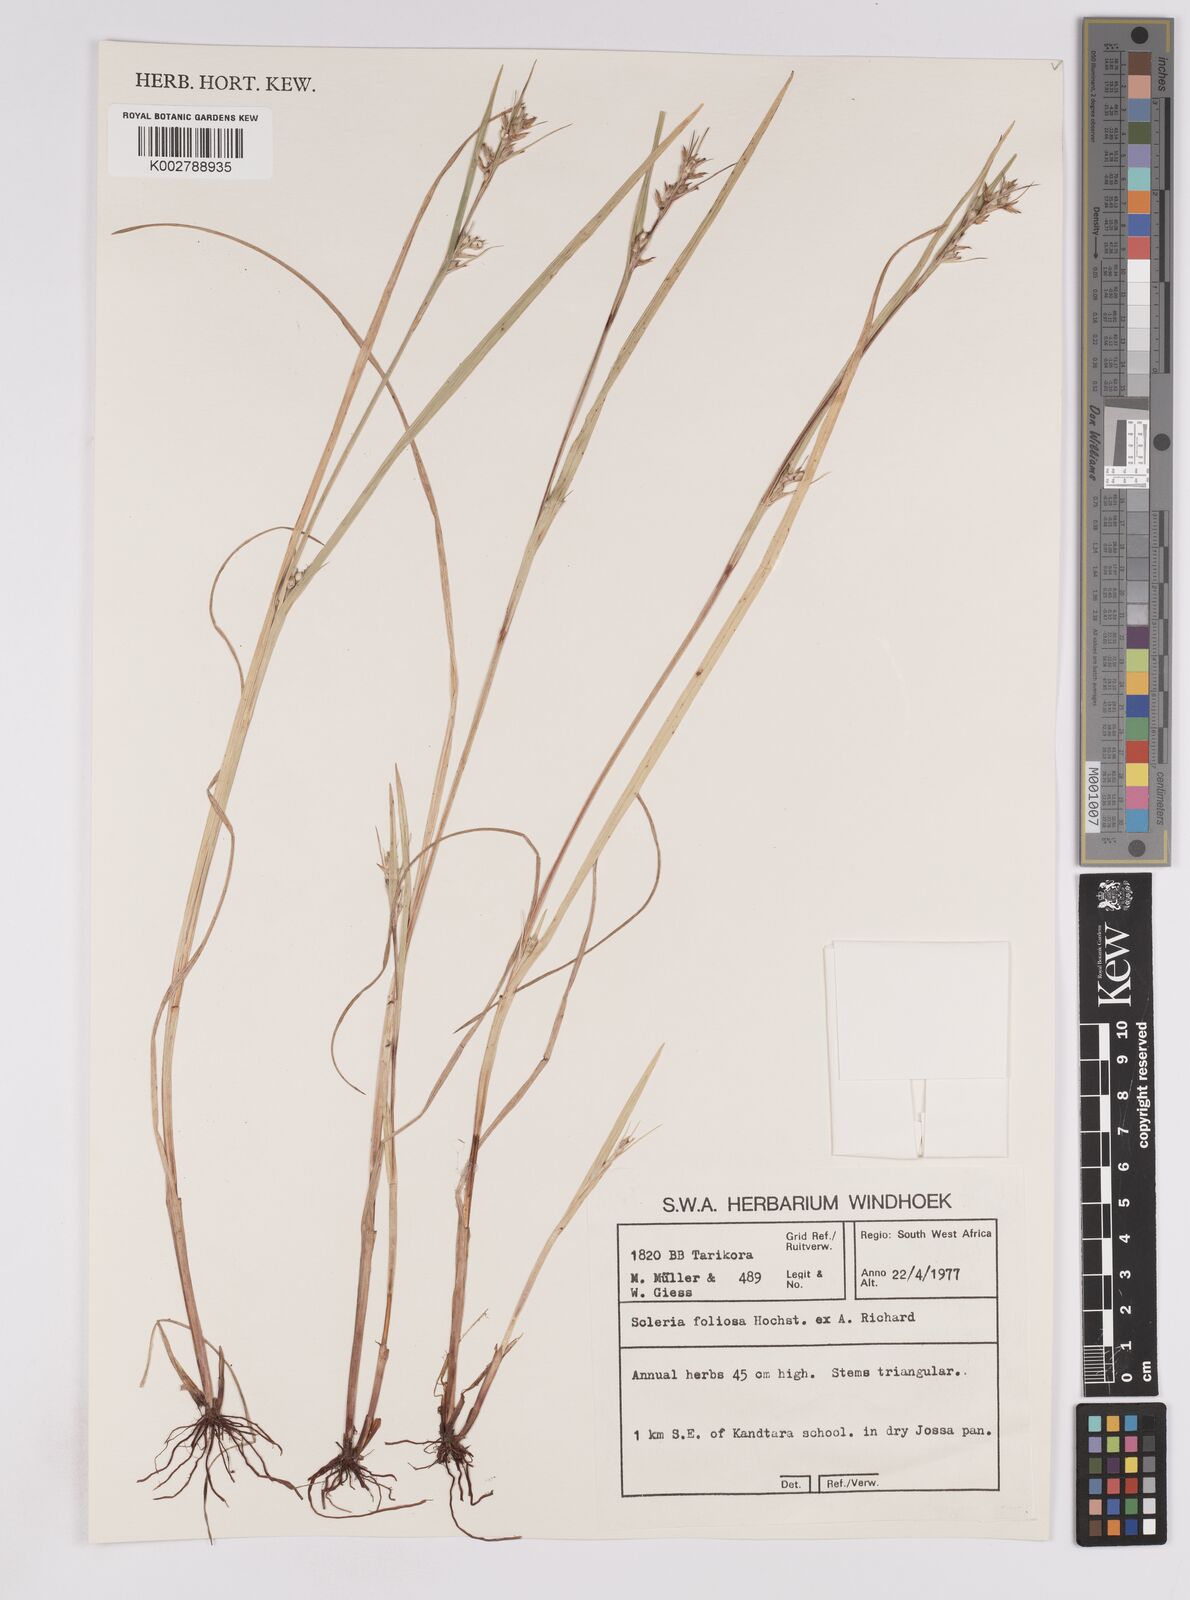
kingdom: Plantae
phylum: Tracheophyta
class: Liliopsida
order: Poales
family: Cyperaceae
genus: Scleria
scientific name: Scleria foliosa
